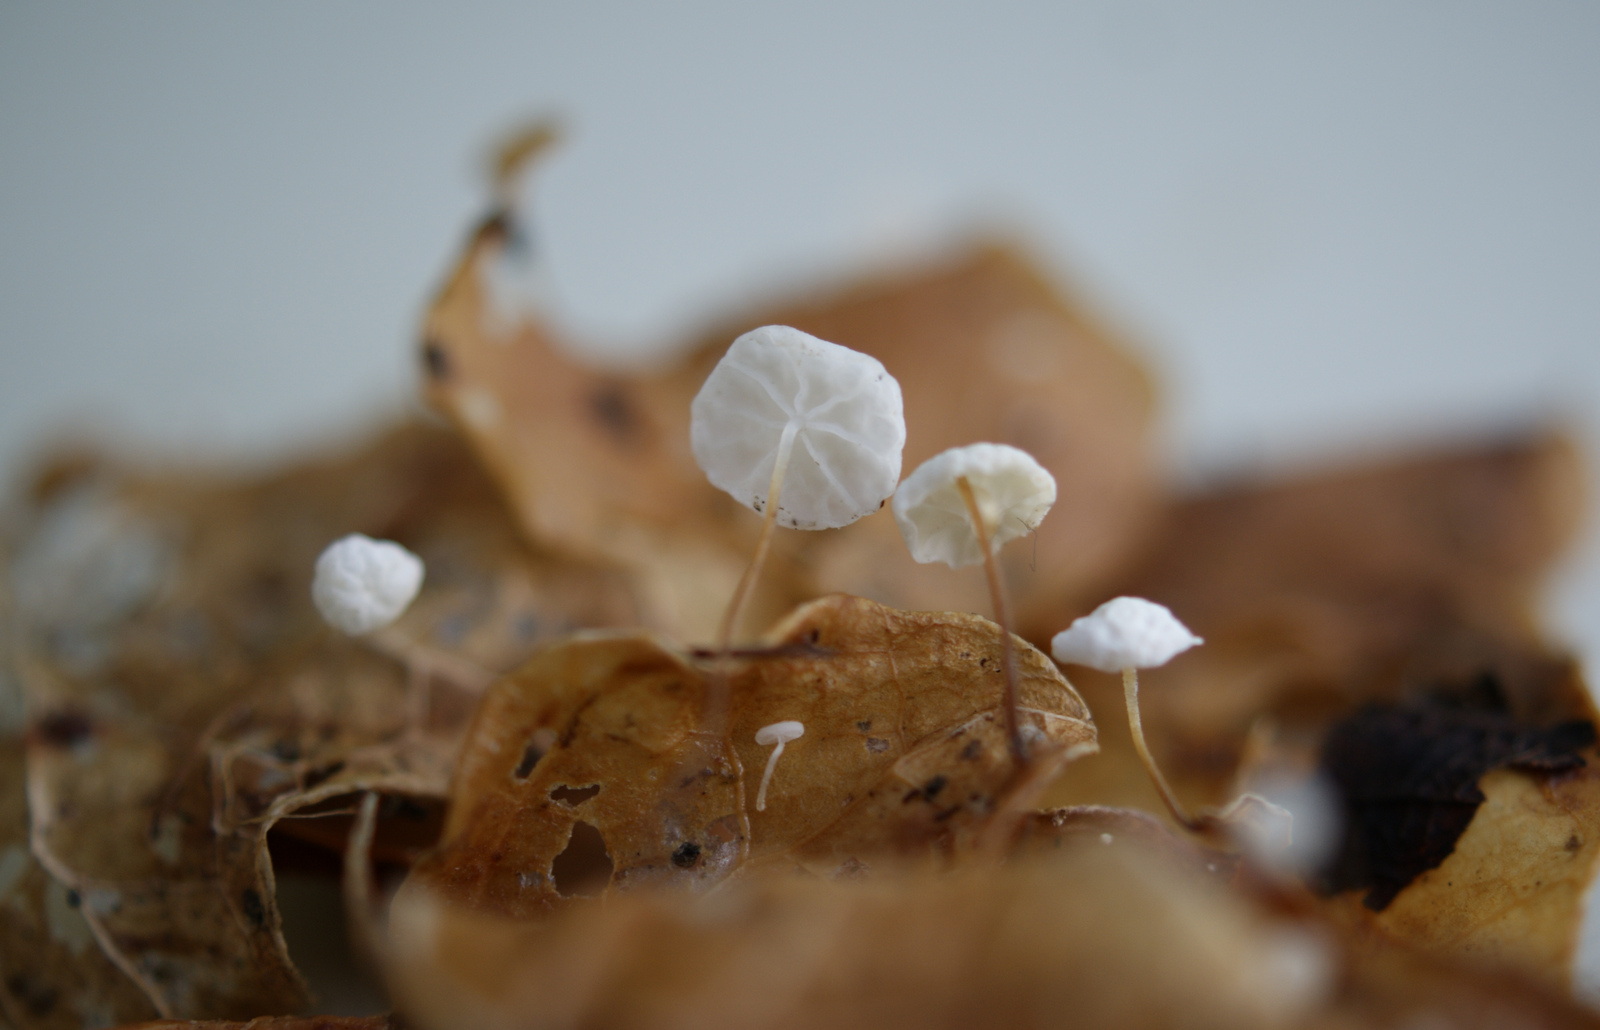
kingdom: Fungi
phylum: Basidiomycota
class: Agaricomycetes
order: Agaricales
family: Marasmiaceae
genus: Marasmius
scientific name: Marasmius epiphylloides
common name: vedbend-bruskhat
